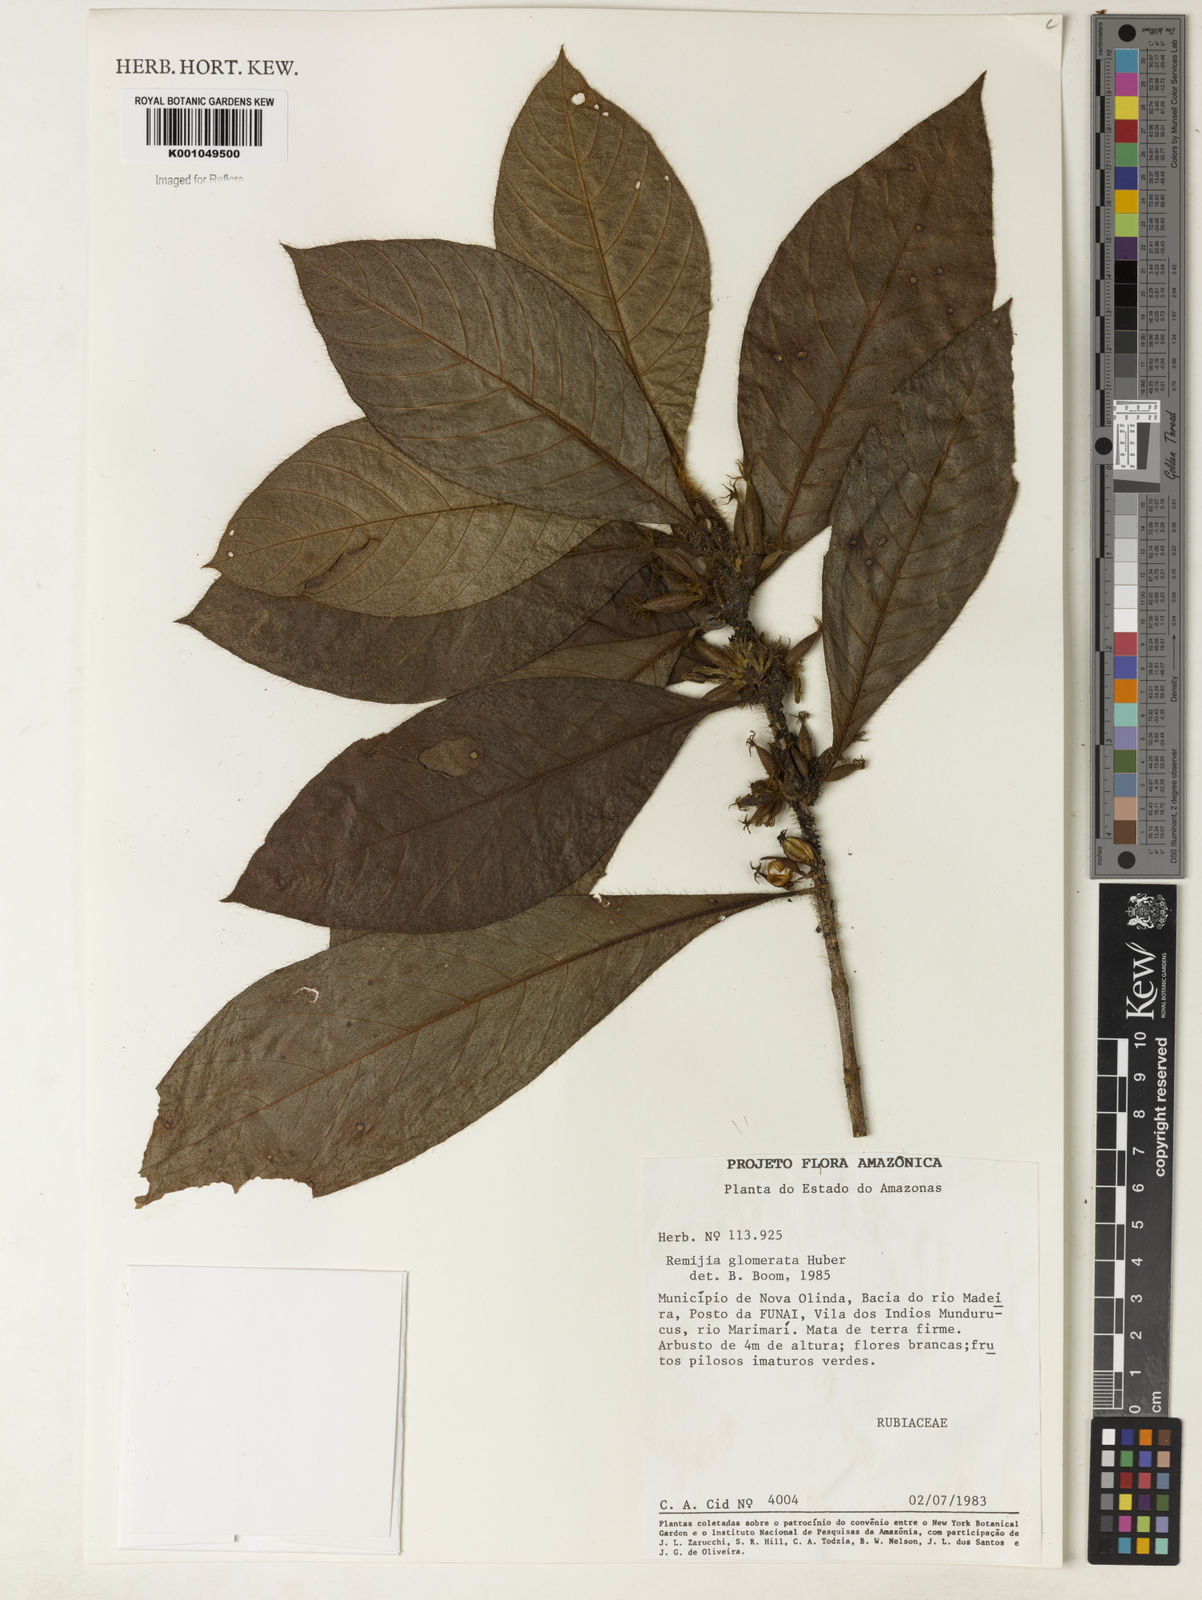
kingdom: Plantae
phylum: Tracheophyta
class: Magnoliopsida
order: Gentianales
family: Rubiaceae
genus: Remijia
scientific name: Remijia glomerata
